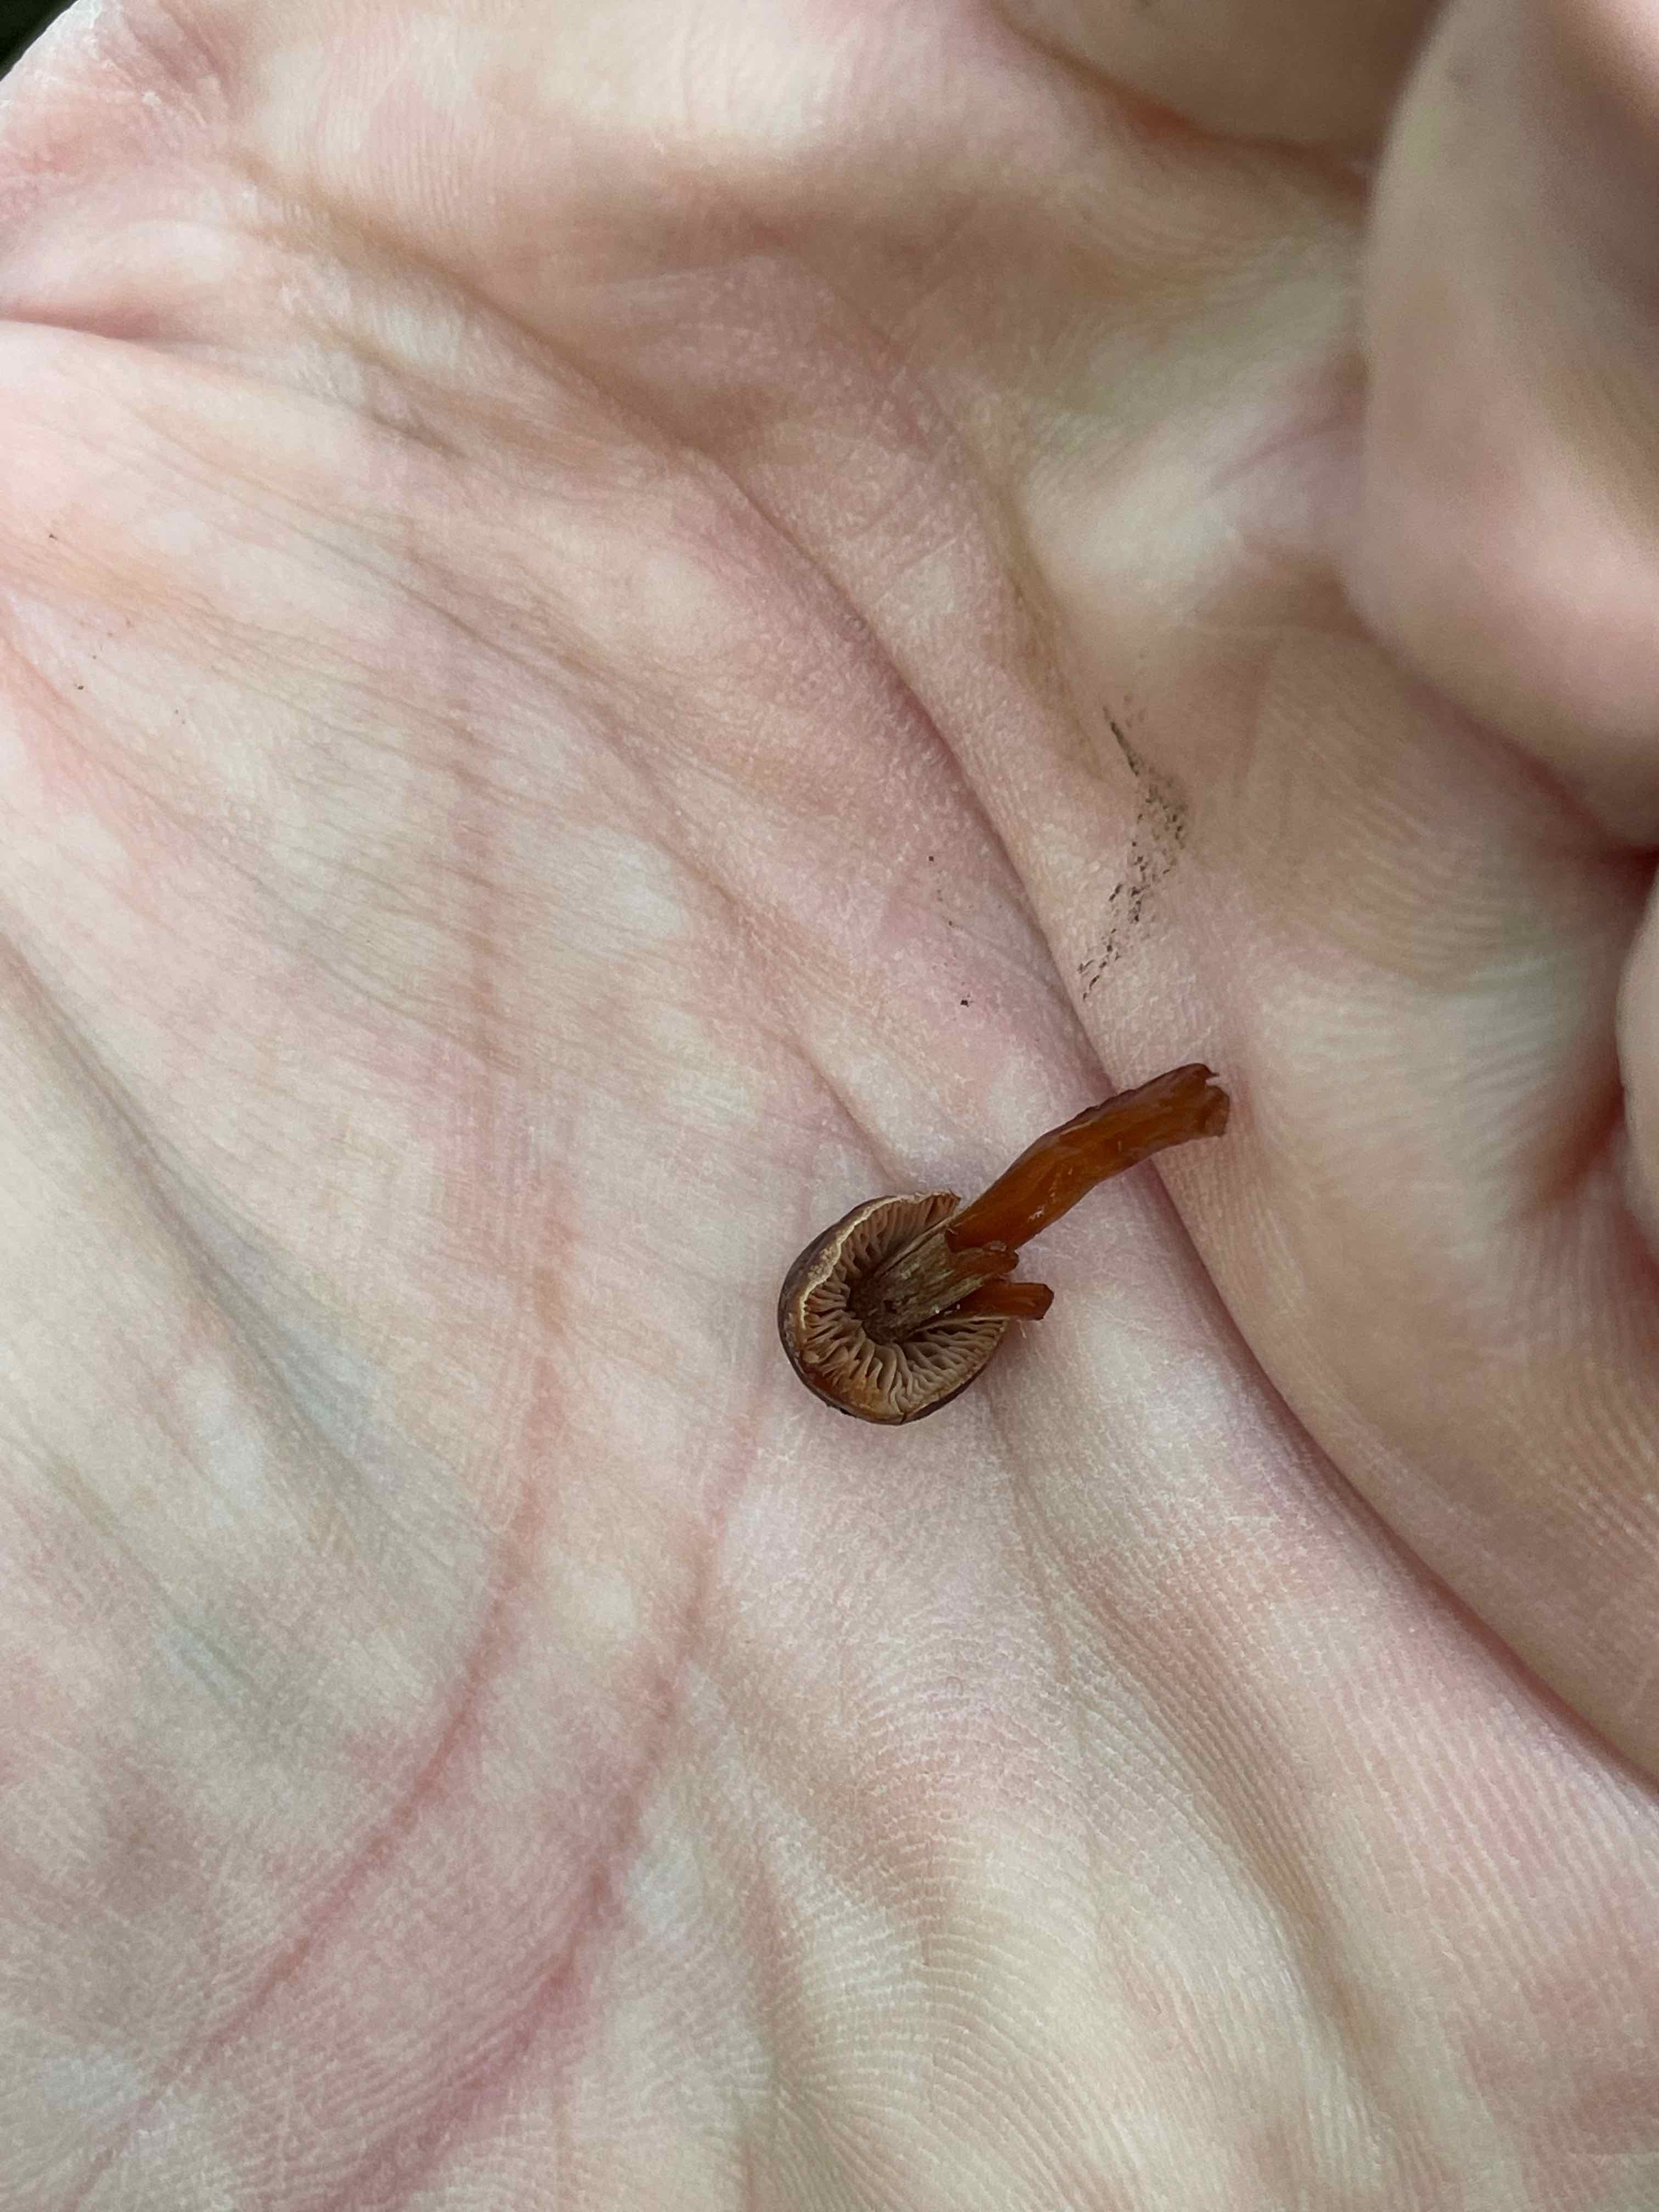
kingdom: Fungi
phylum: Basidiomycota
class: Agaricomycetes
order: Agaricales
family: Cortinariaceae
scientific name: Cortinariaceae
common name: slørhatfamilien
